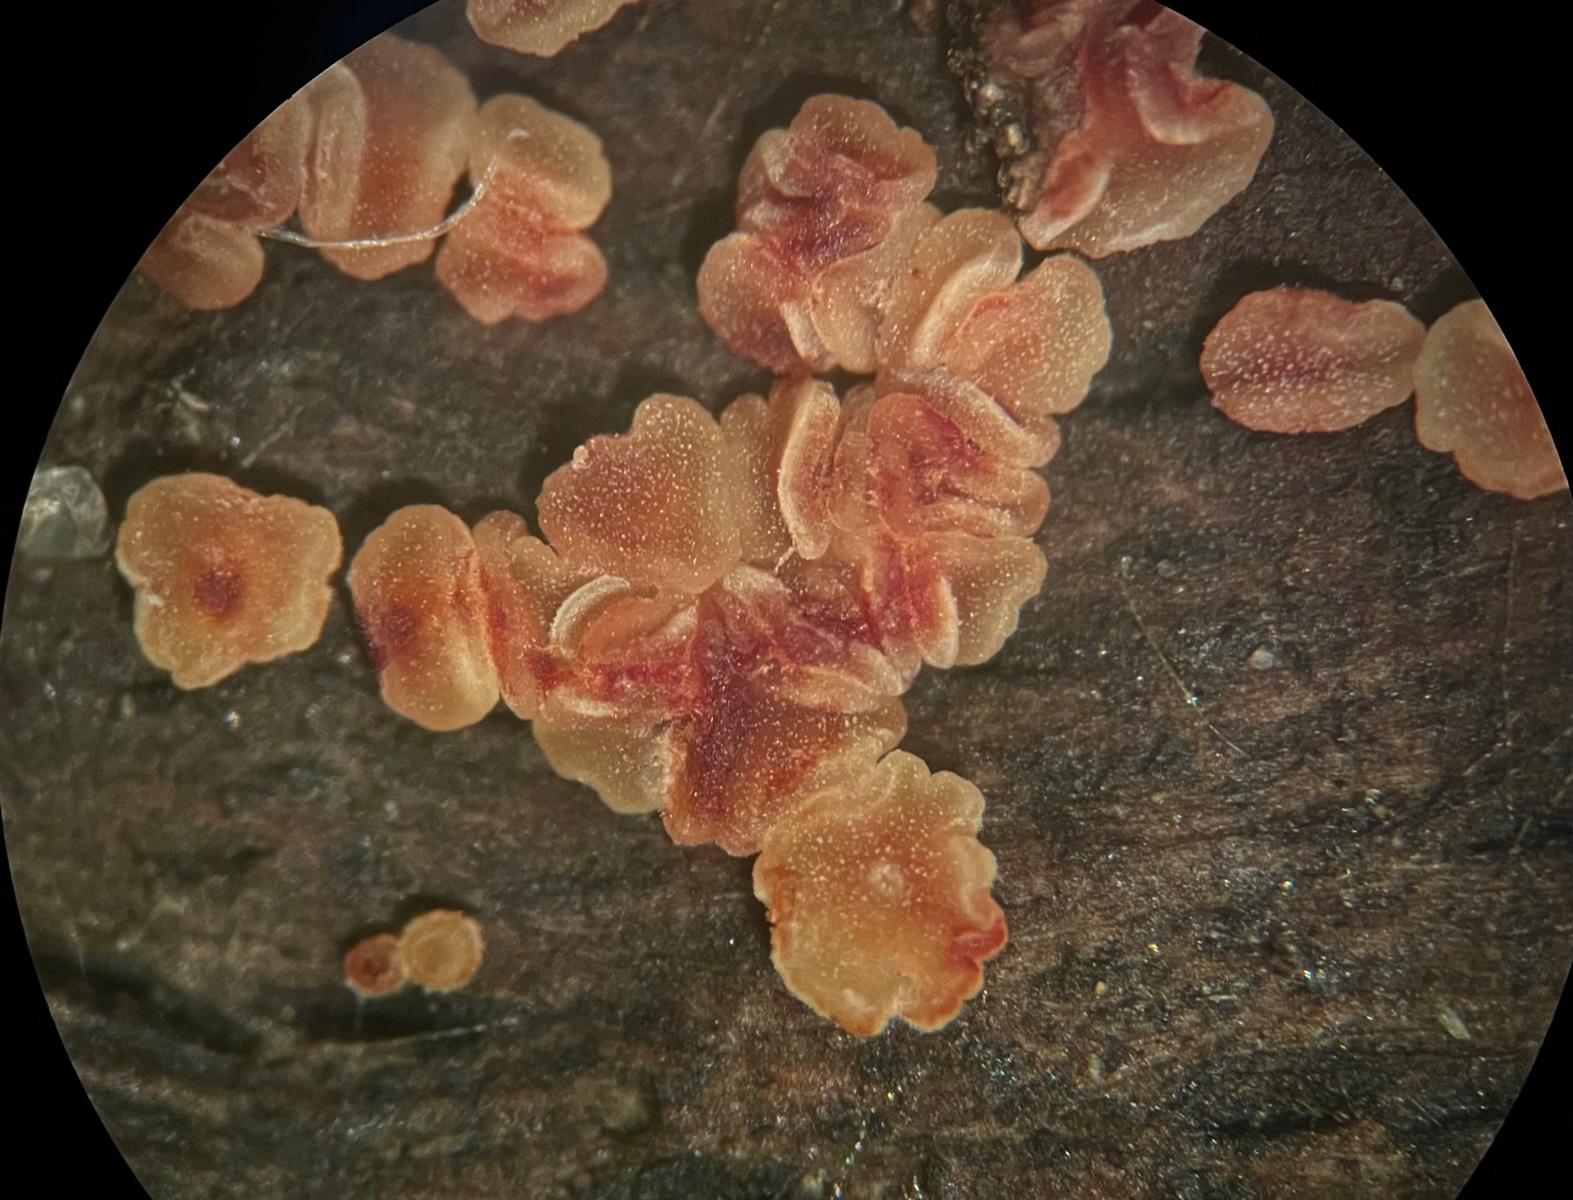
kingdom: Fungi
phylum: Ascomycota
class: Leotiomycetes
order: Helotiales
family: Pezizellaceae
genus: Calycina
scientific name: Calycina
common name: gulskive
